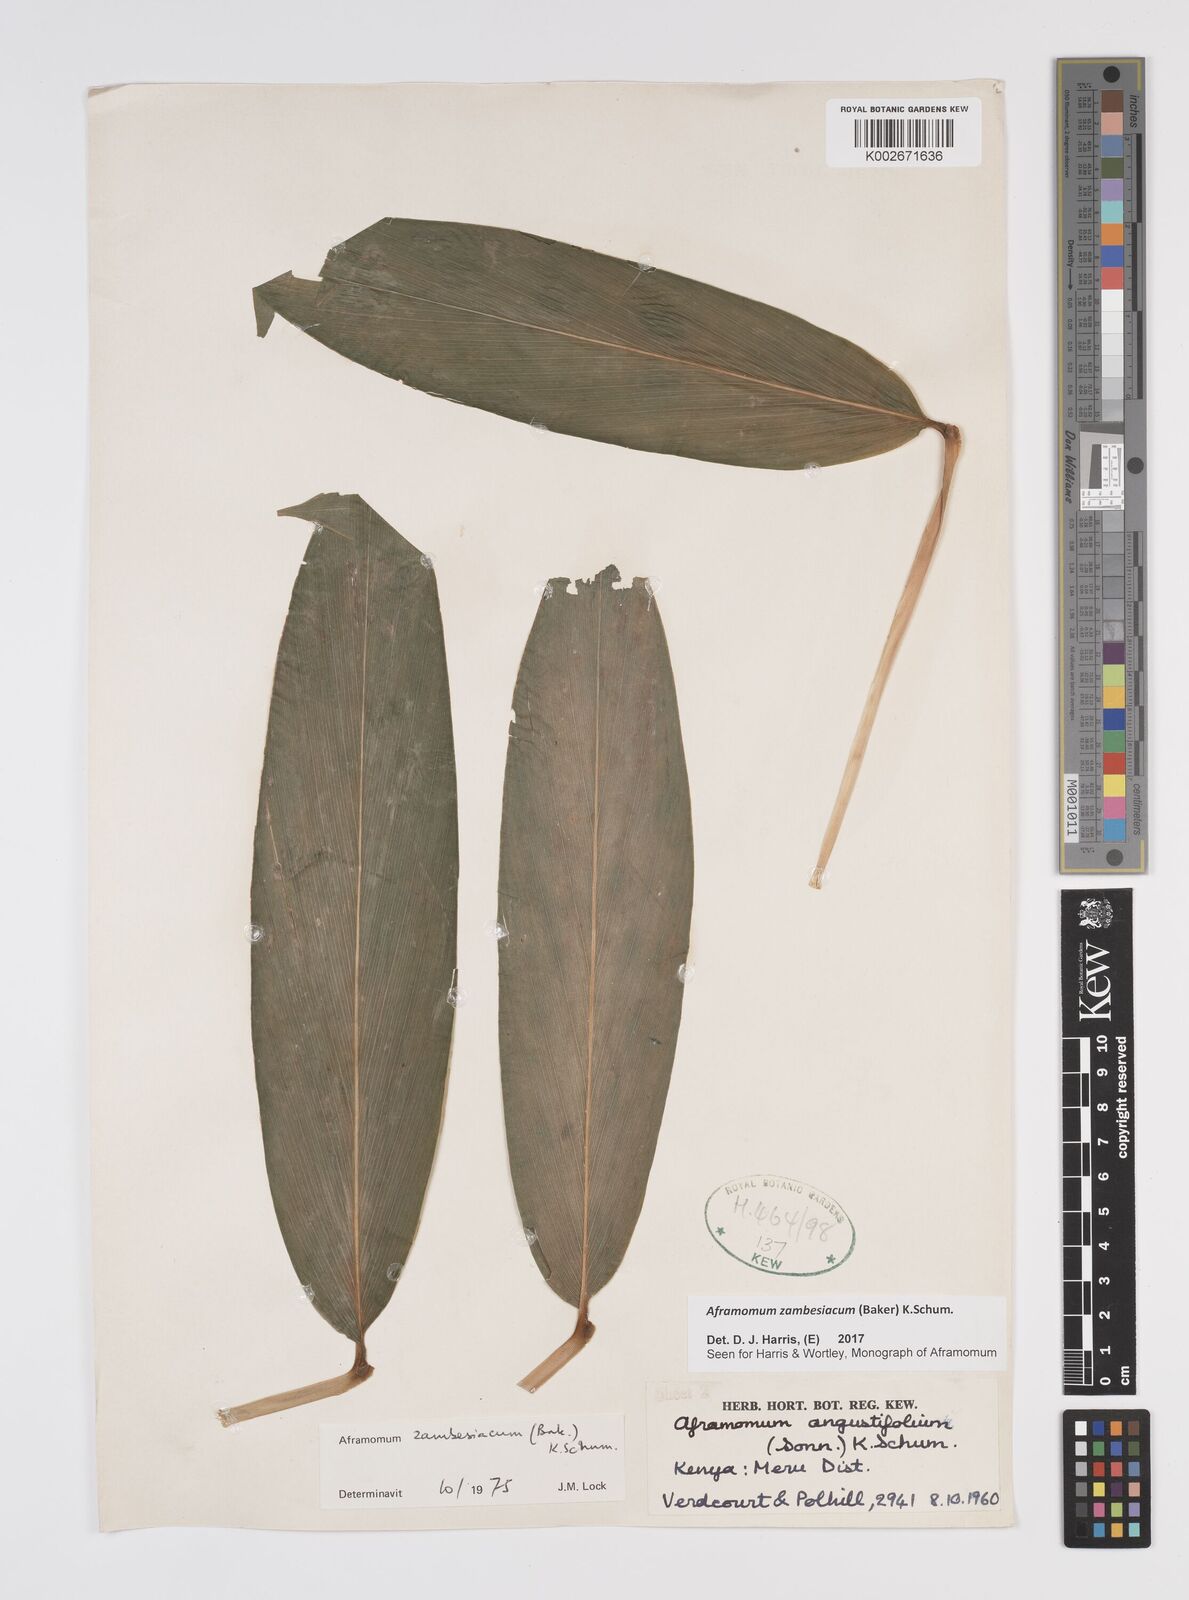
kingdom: Plantae
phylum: Tracheophyta
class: Liliopsida
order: Zingiberales
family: Zingiberaceae
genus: Aframomum
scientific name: Aframomum zambesiacum
